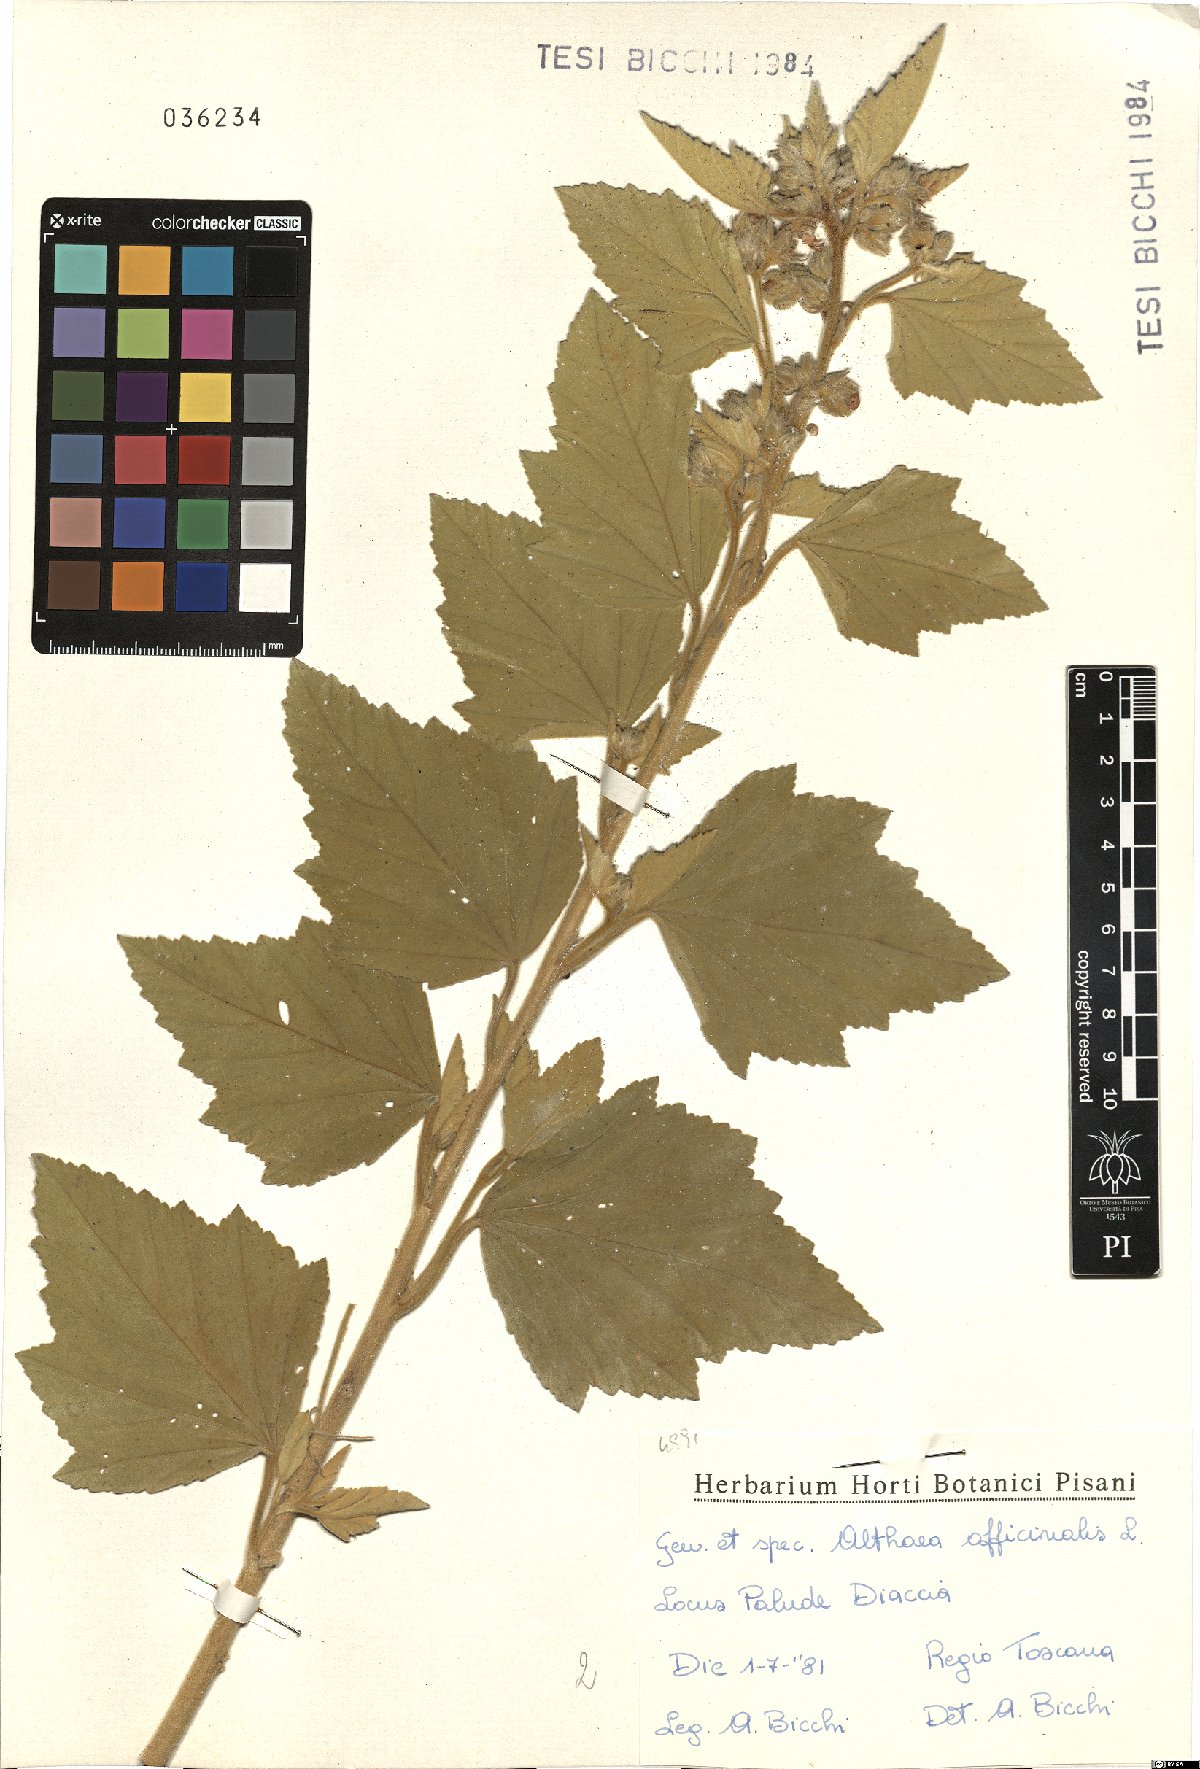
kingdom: Plantae
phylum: Tracheophyta
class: Magnoliopsida
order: Malvales
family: Malvaceae
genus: Althaea
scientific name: Althaea officinalis
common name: Marsh-mallow
